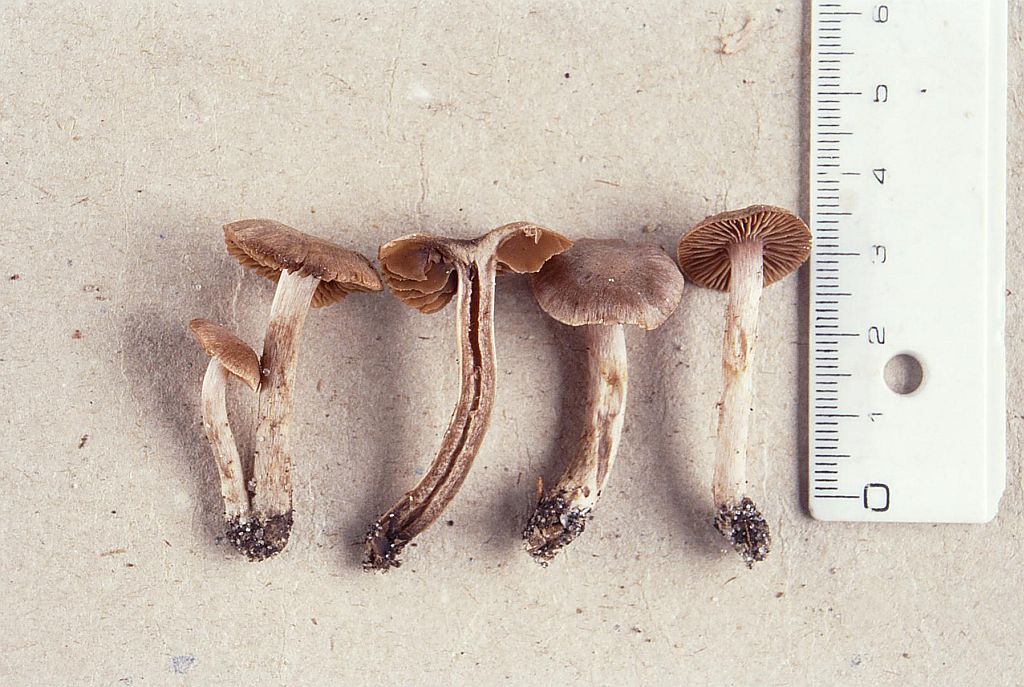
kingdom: Fungi
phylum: Basidiomycota
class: Agaricomycetes
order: Agaricales
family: Cortinariaceae
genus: Cortinarius
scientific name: Cortinarius subtilis
